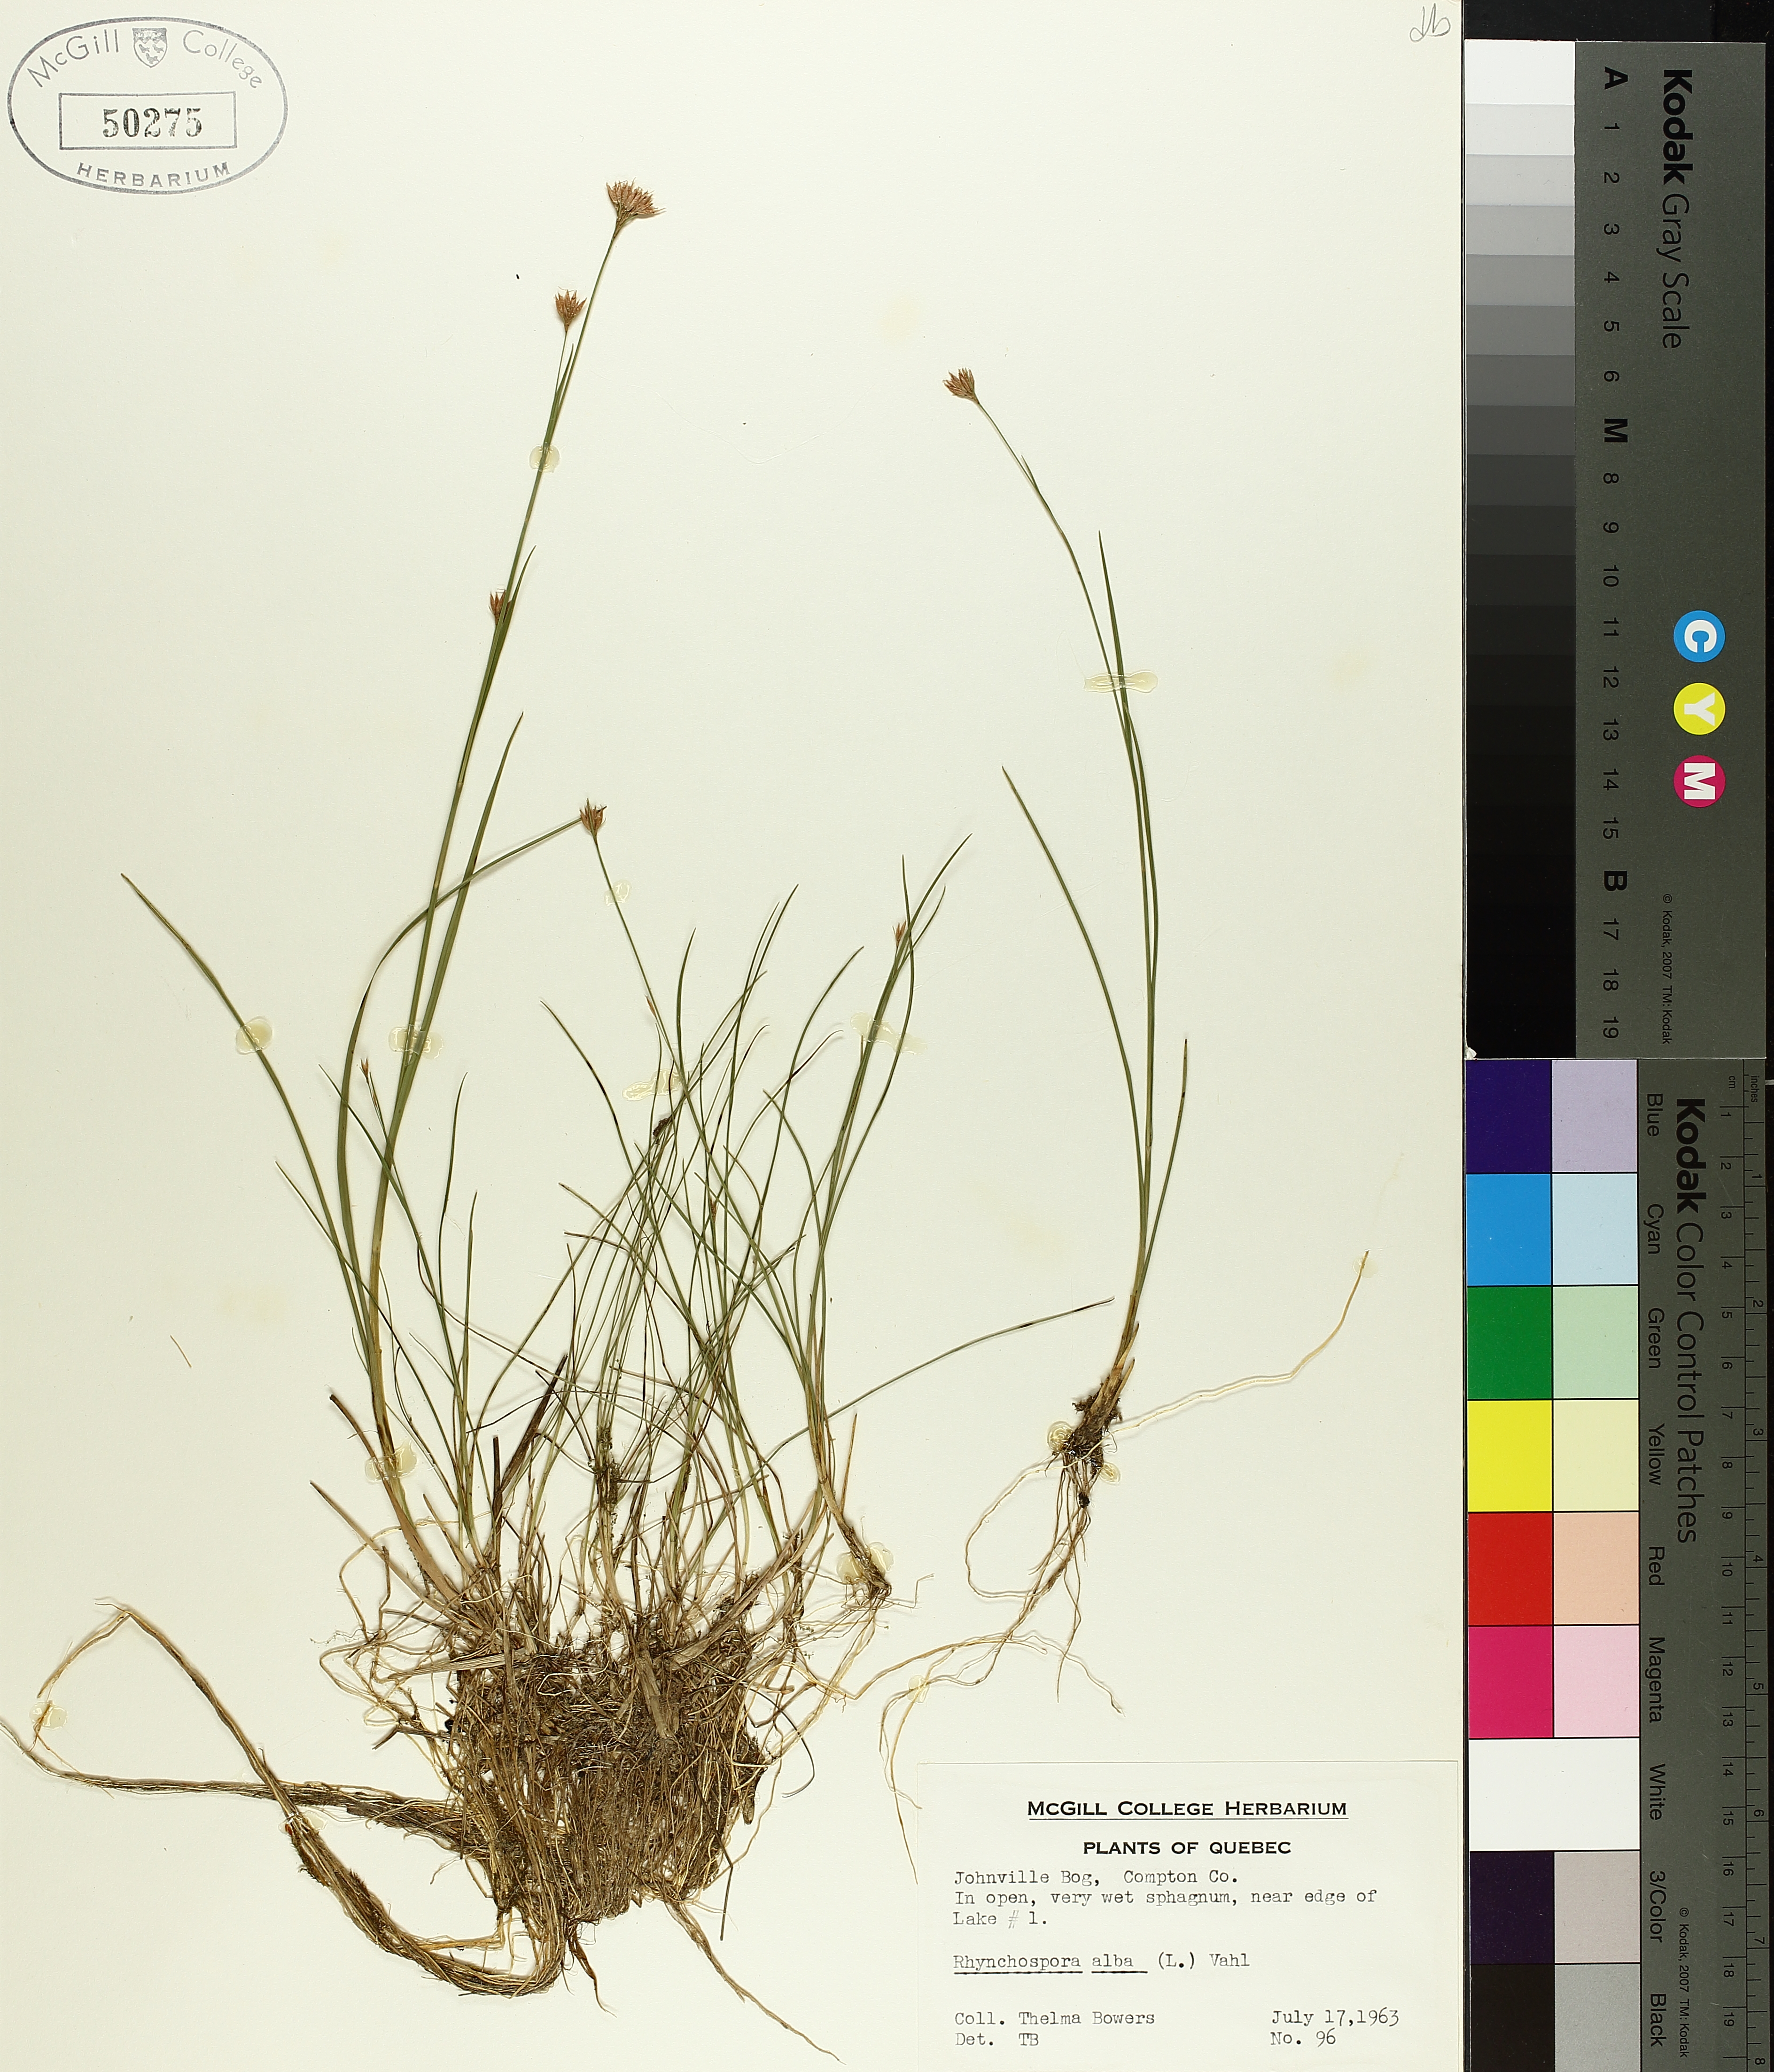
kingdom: Plantae
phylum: Tracheophyta
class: Liliopsida
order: Poales
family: Cyperaceae
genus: Rhynchospora
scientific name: Rhynchospora alba
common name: White beak-sedge
